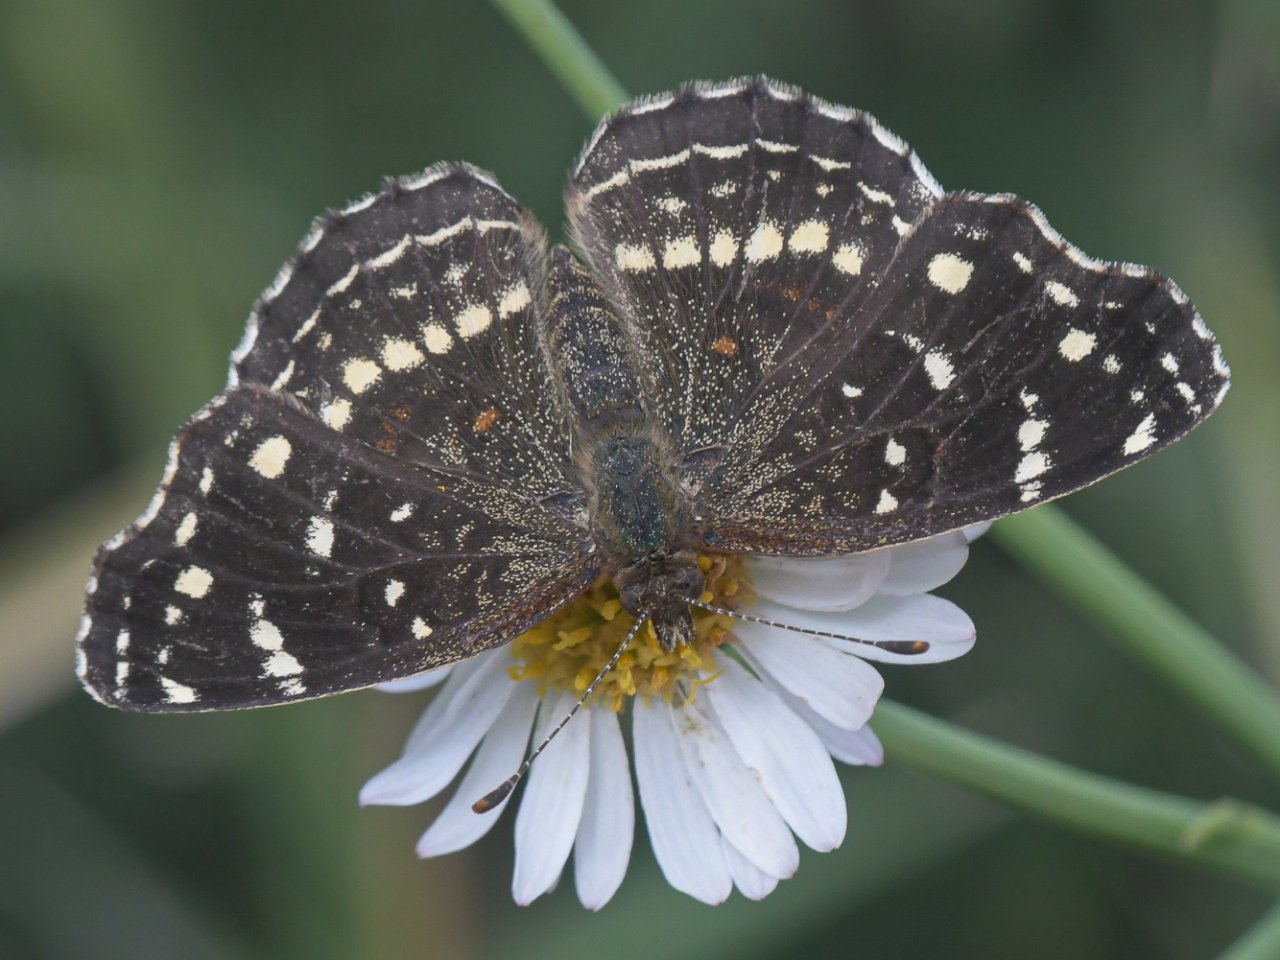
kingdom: Animalia
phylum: Arthropoda
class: Insecta
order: Lepidoptera
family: Nymphalidae
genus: Anthanassa
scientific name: Anthanassa texana
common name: Texan Crescent
